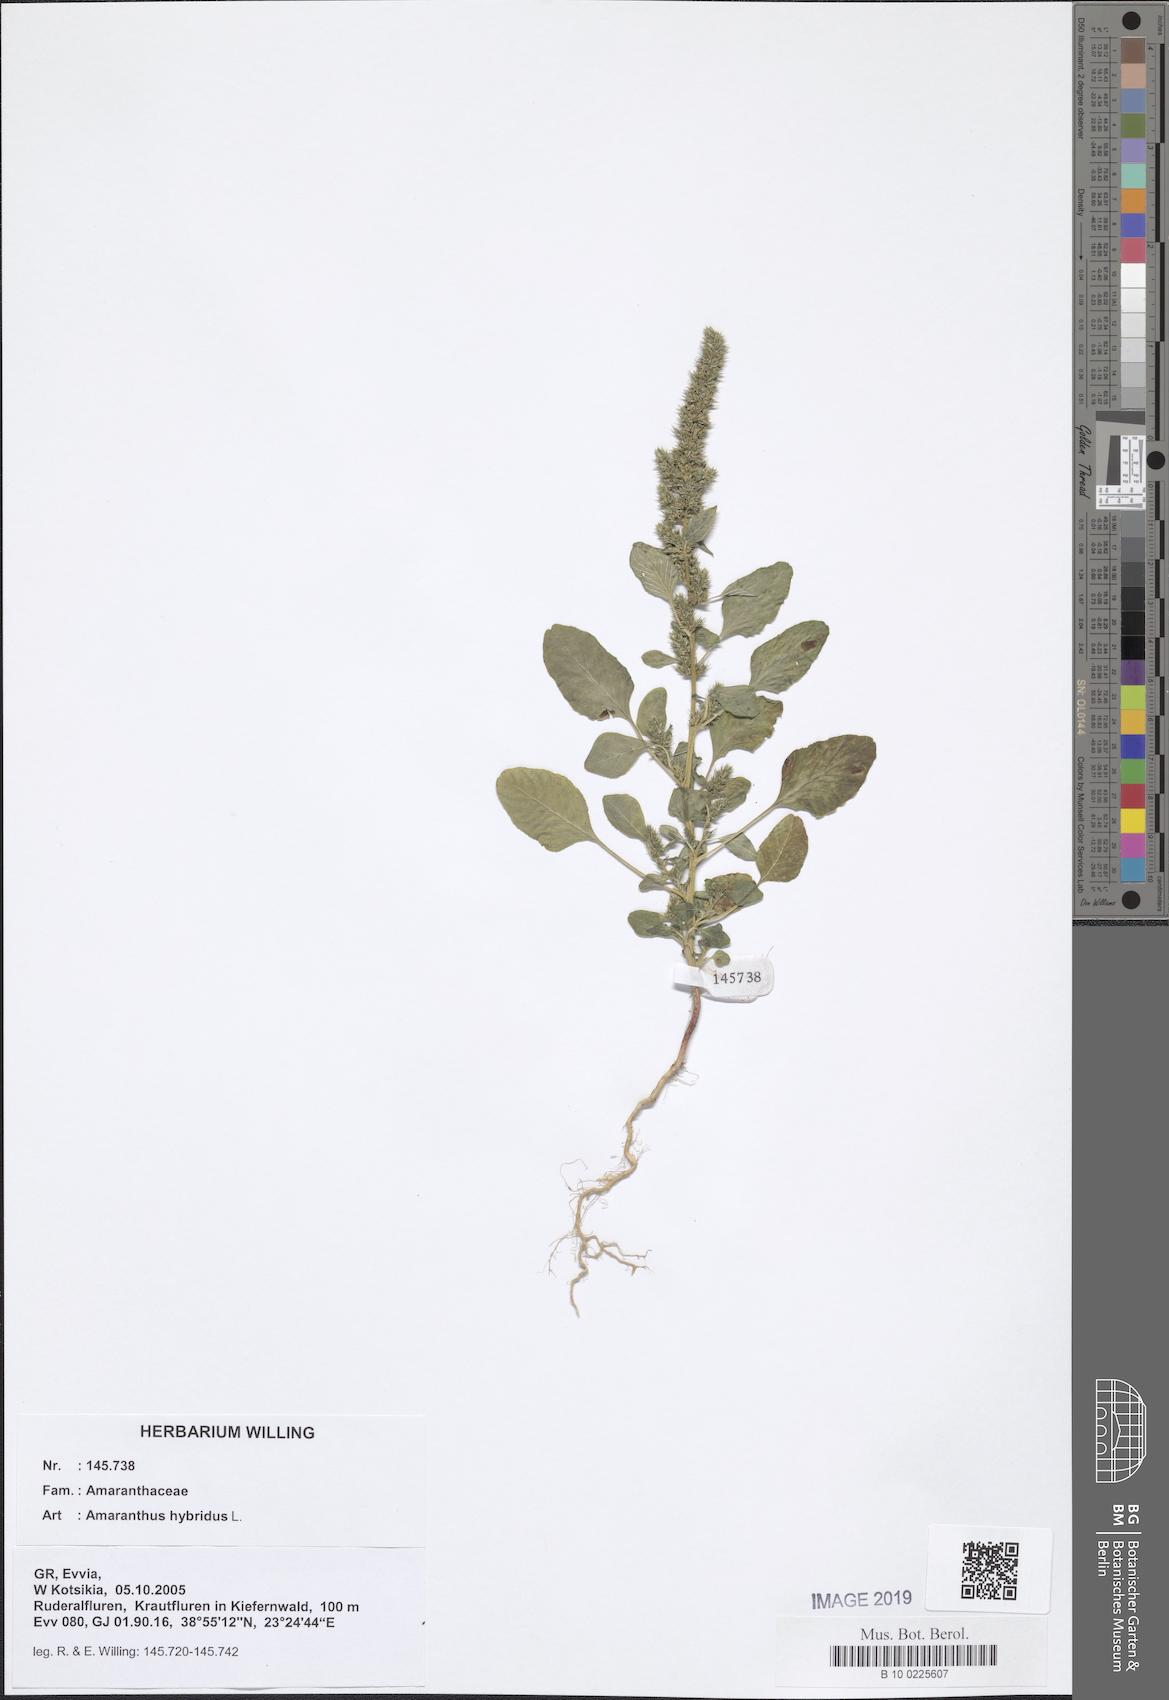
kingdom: Plantae
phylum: Tracheophyta
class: Magnoliopsida
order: Caryophyllales
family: Amaranthaceae
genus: Amaranthus
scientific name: Amaranthus hybridus
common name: Green amaranth
